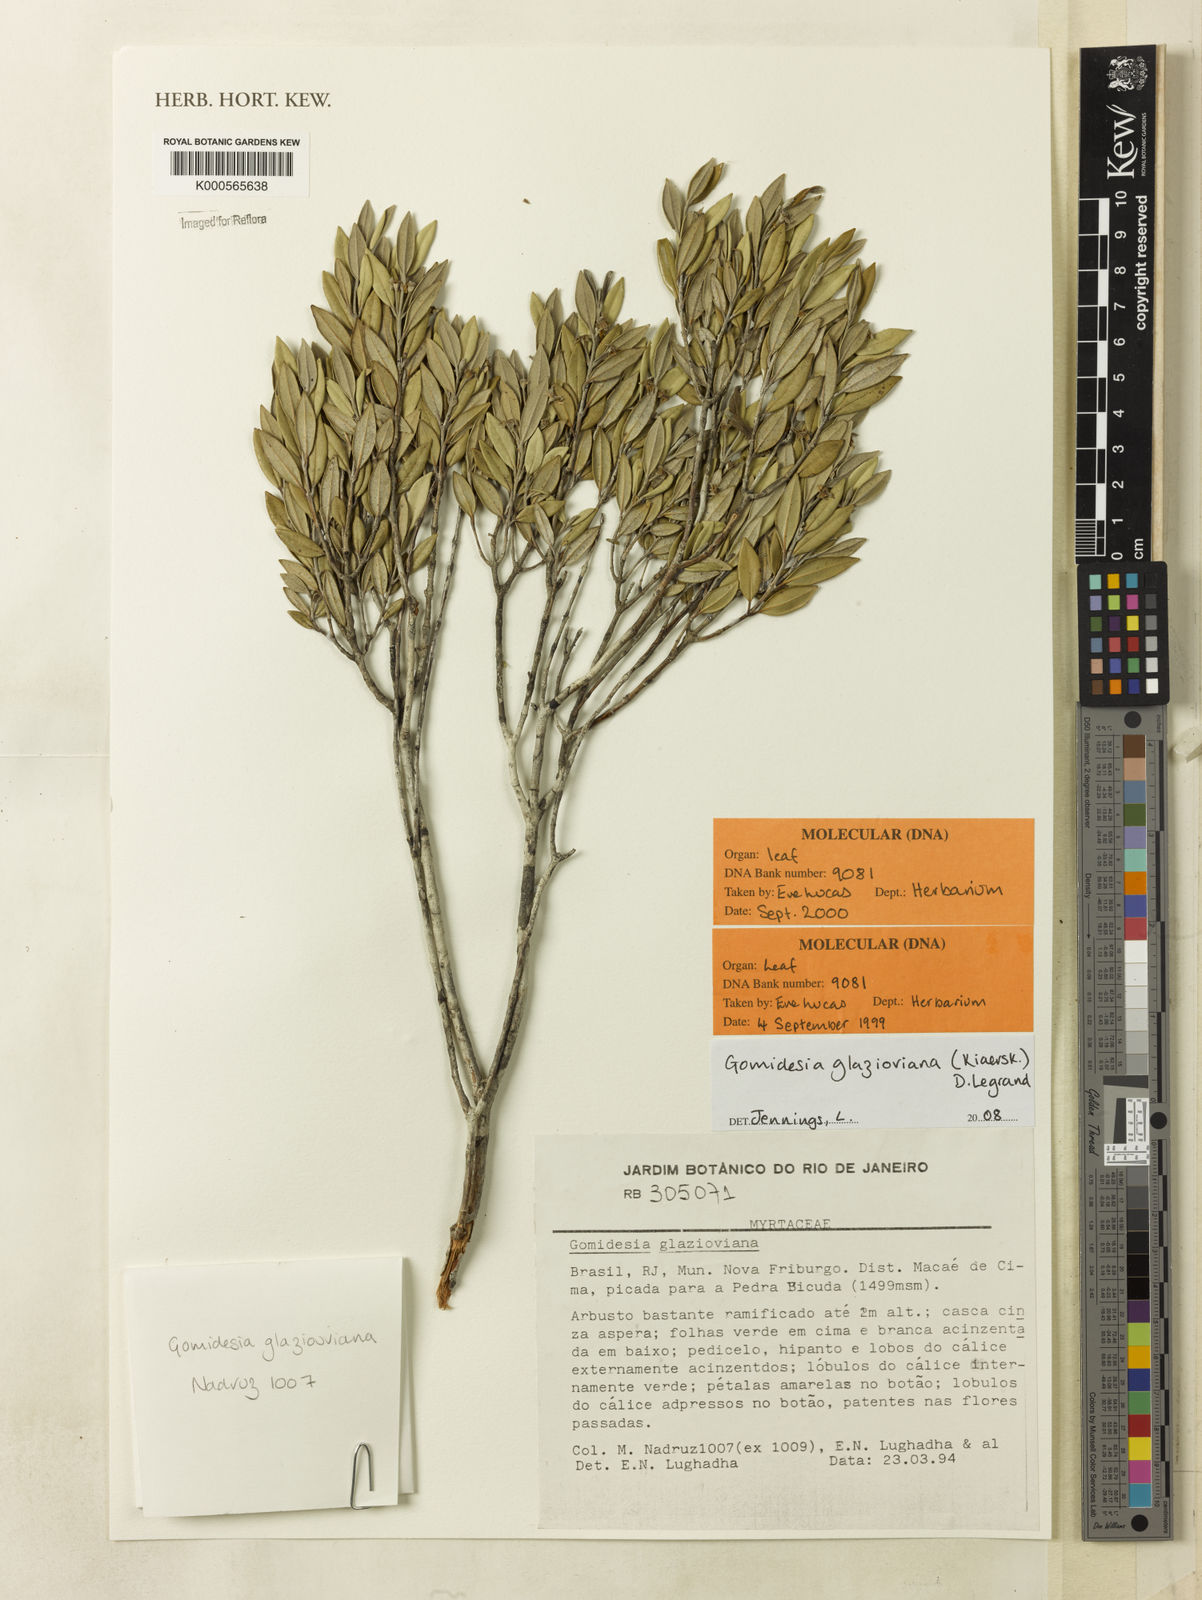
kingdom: Plantae
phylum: Tracheophyta
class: Magnoliopsida
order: Myrtales
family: Myrtaceae
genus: Myrcia
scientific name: Myrcia glazioviana
